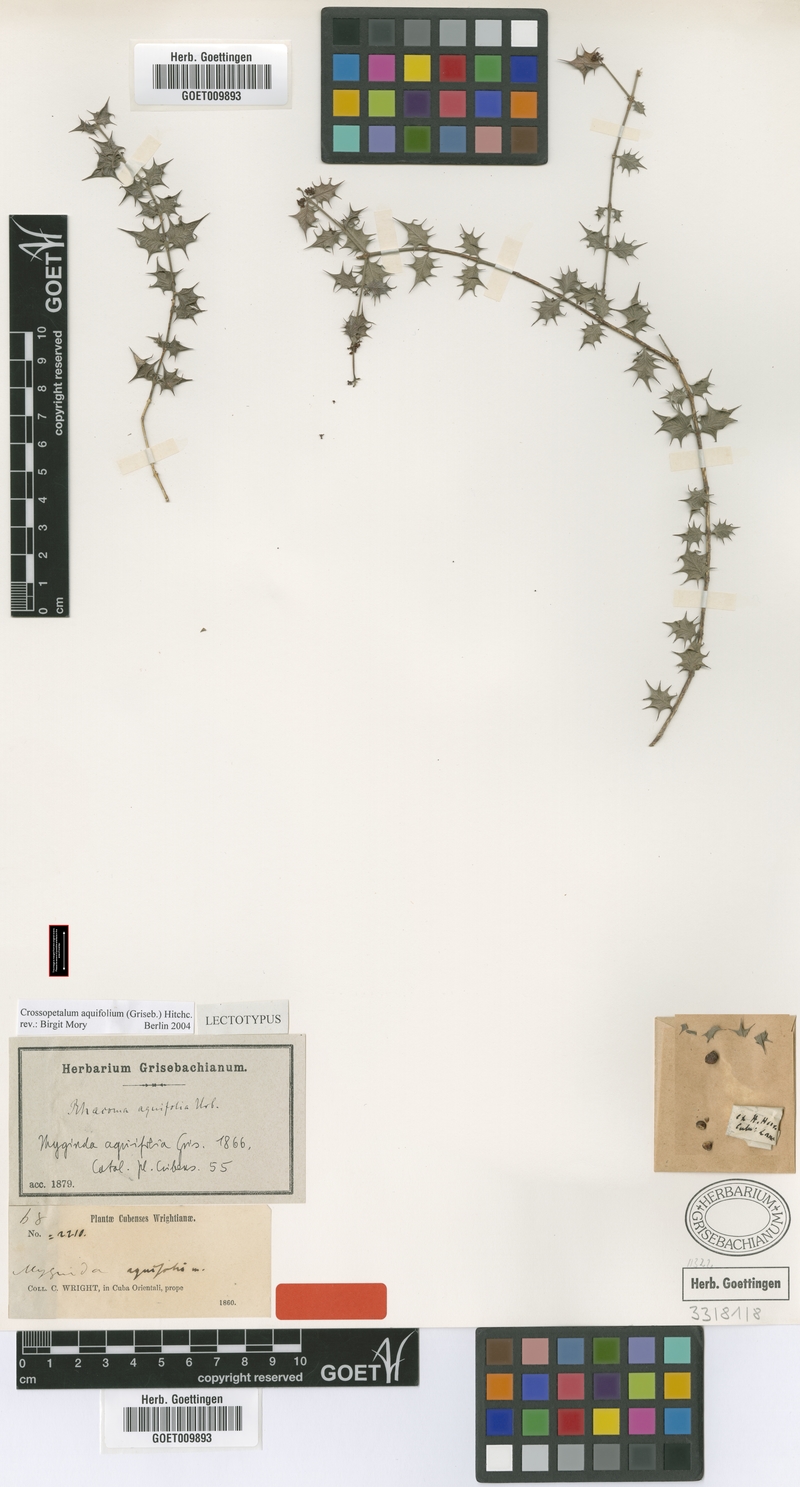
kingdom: Plantae
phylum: Tracheophyta
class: Magnoliopsida
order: Celastrales
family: Celastraceae
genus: Crossopetalum
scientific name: Crossopetalum aquifolium
